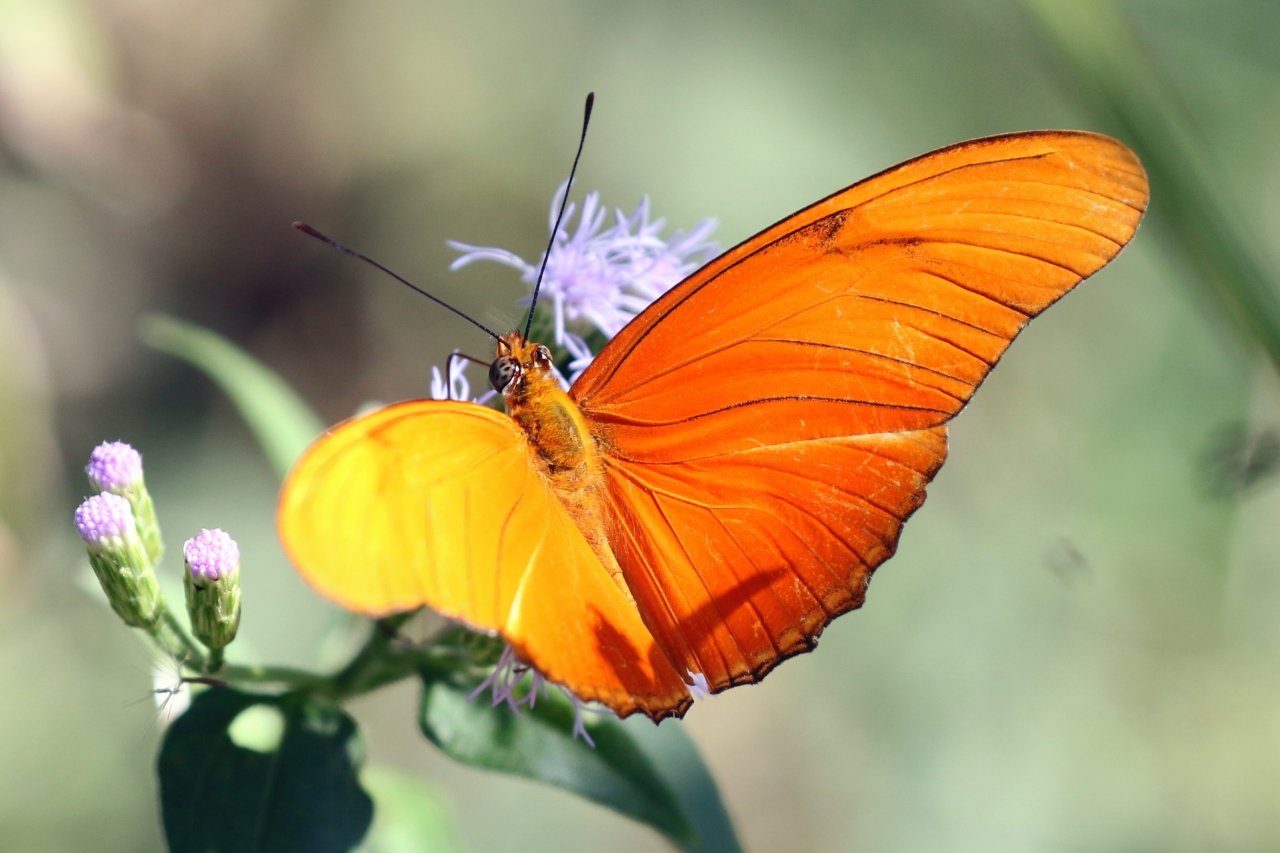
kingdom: Animalia
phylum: Arthropoda
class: Insecta
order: Lepidoptera
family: Nymphalidae
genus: Dryas
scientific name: Dryas iulia
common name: Julia
